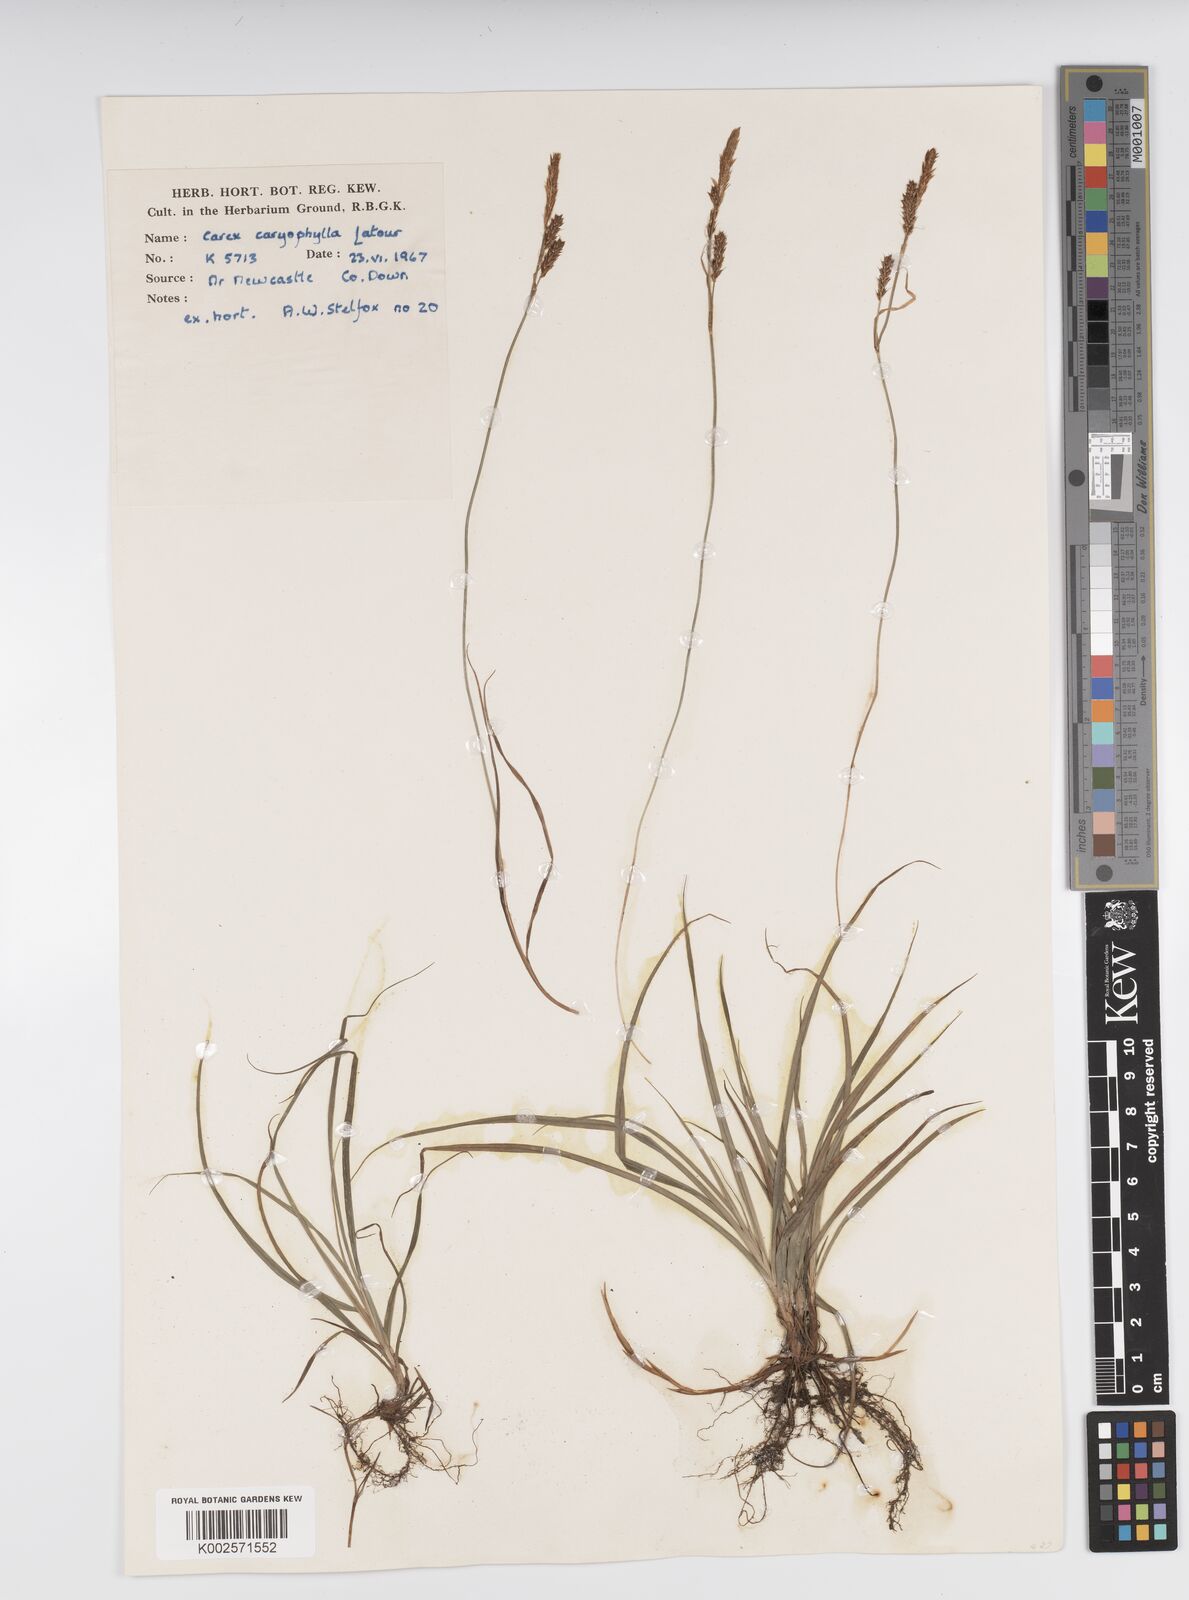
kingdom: Plantae
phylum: Tracheophyta
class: Liliopsida
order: Poales
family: Cyperaceae
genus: Carex
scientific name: Carex caryophyllea
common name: Spring sedge
